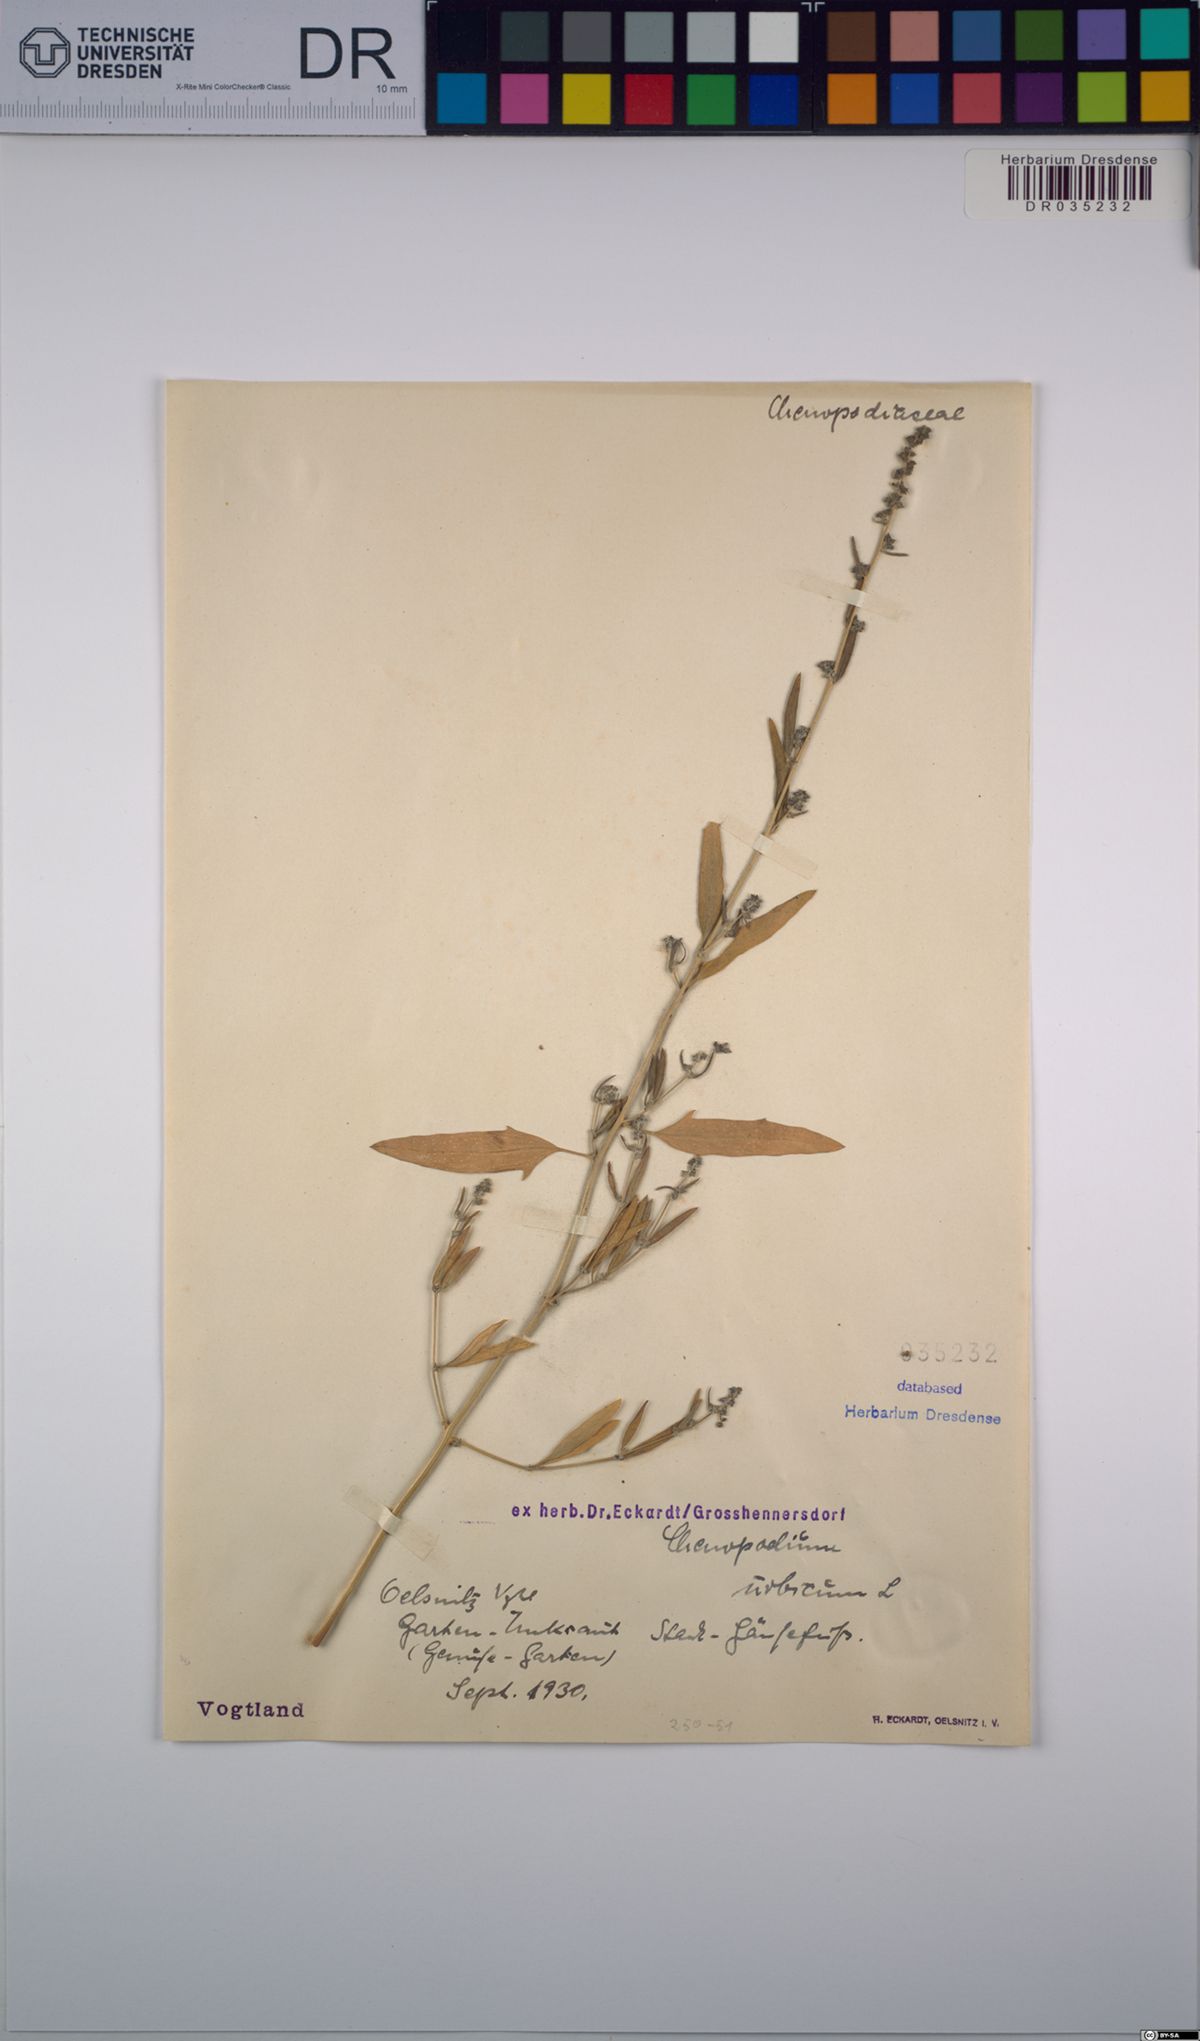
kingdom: Plantae
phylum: Tracheophyta
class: Magnoliopsida
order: Caryophyllales
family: Amaranthaceae
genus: Atriplex
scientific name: Atriplex patula
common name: Common orache
